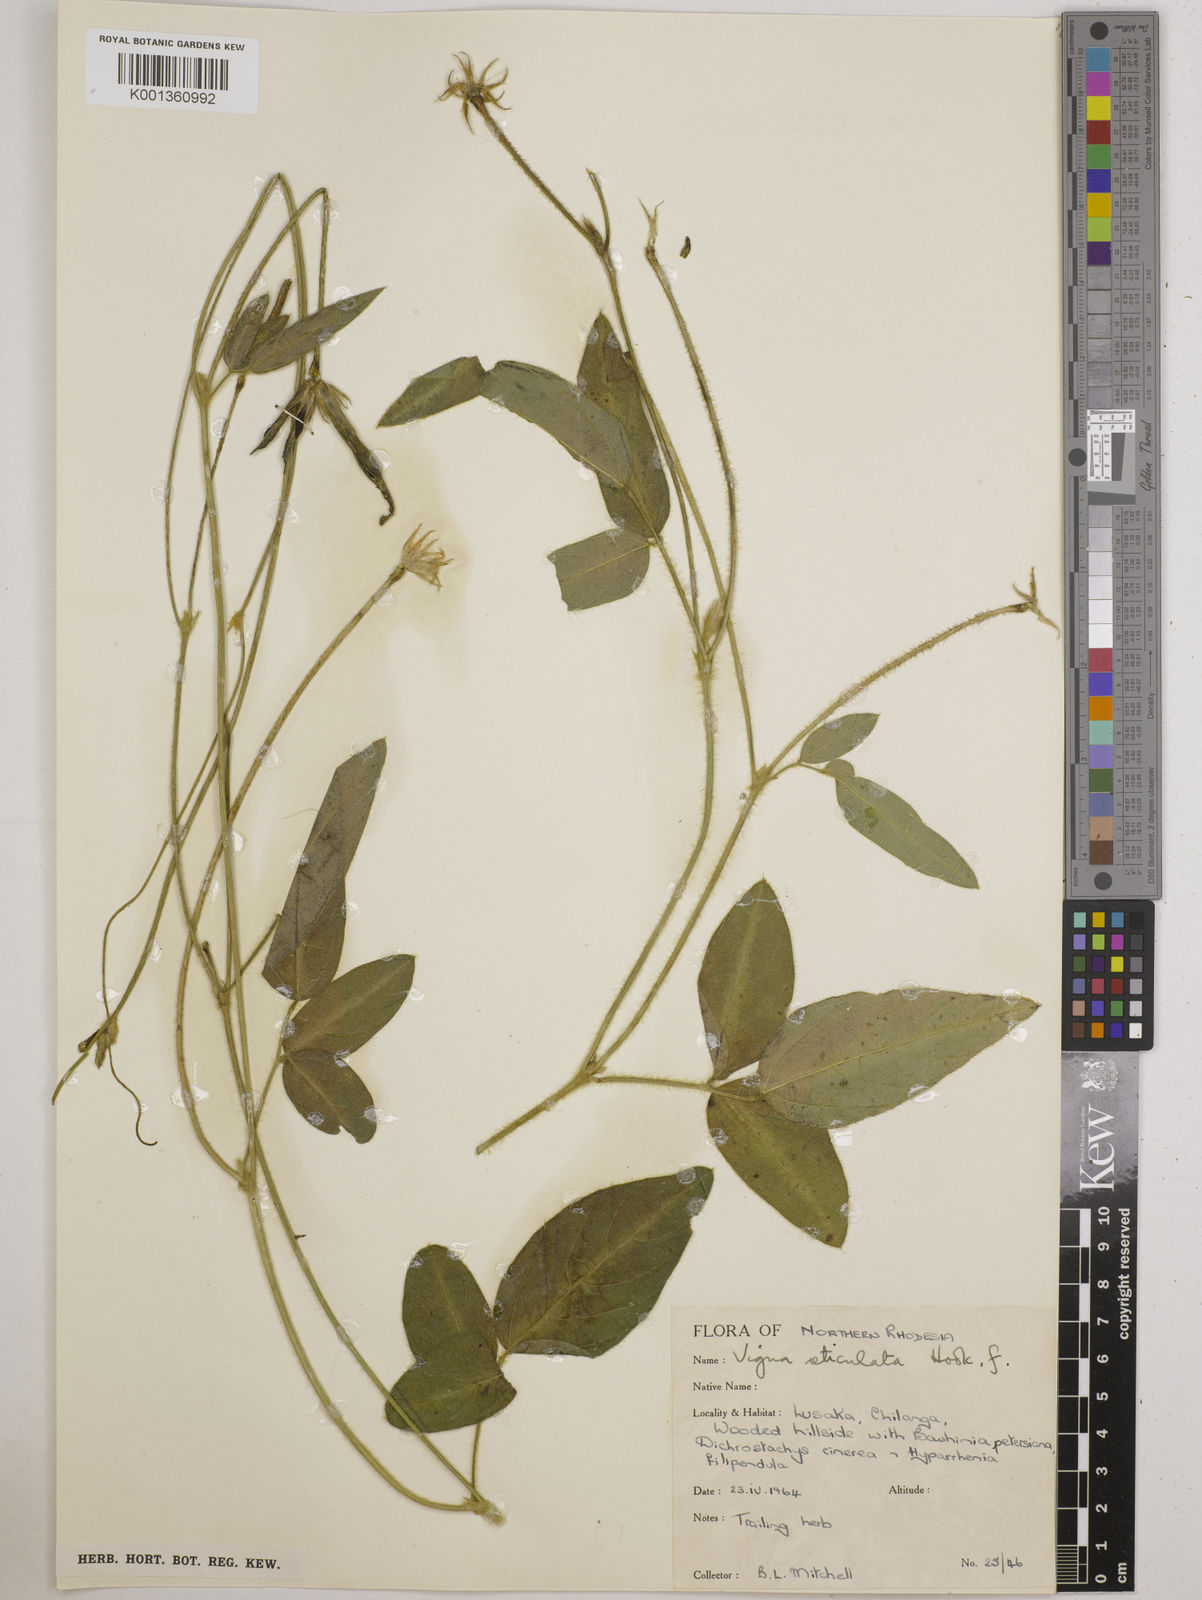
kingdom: Plantae
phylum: Tracheophyta
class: Magnoliopsida
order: Fabales
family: Fabaceae
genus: Vigna
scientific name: Vigna reticulata
